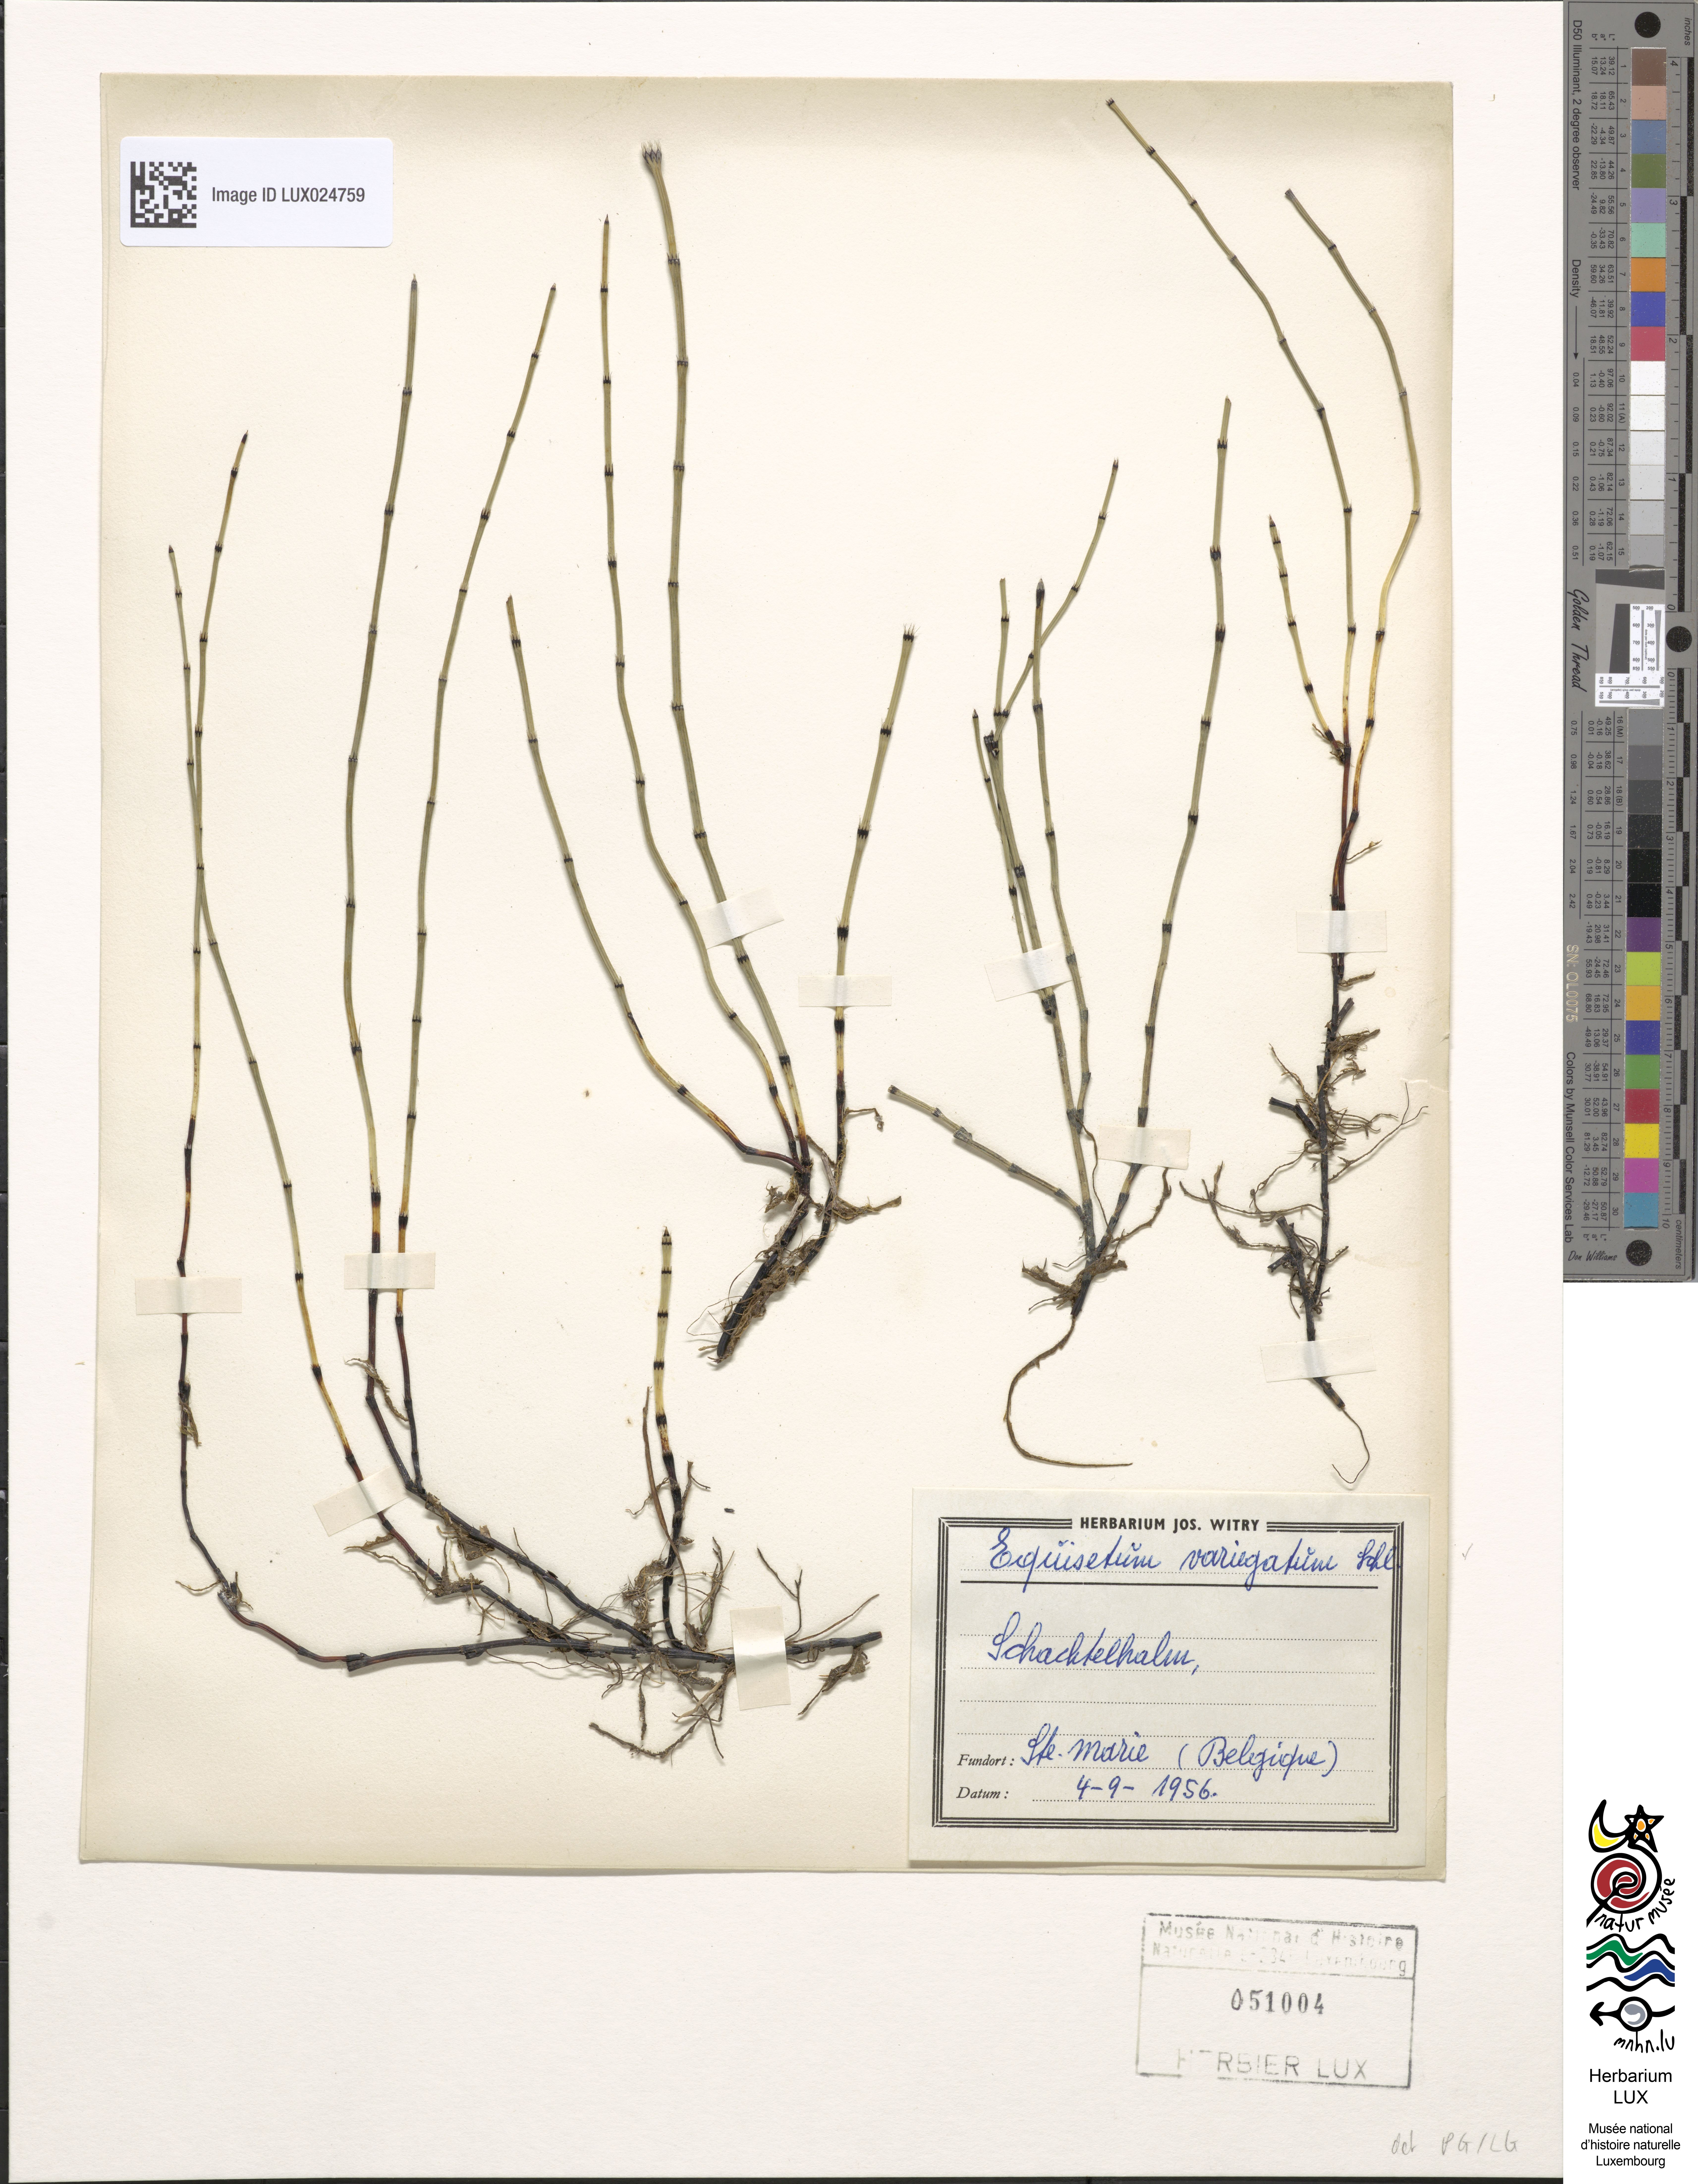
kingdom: Plantae
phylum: Tracheophyta
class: Polypodiopsida
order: Equisetales
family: Equisetaceae
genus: Equisetum
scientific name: Equisetum variegatum
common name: Variegated horsetail
